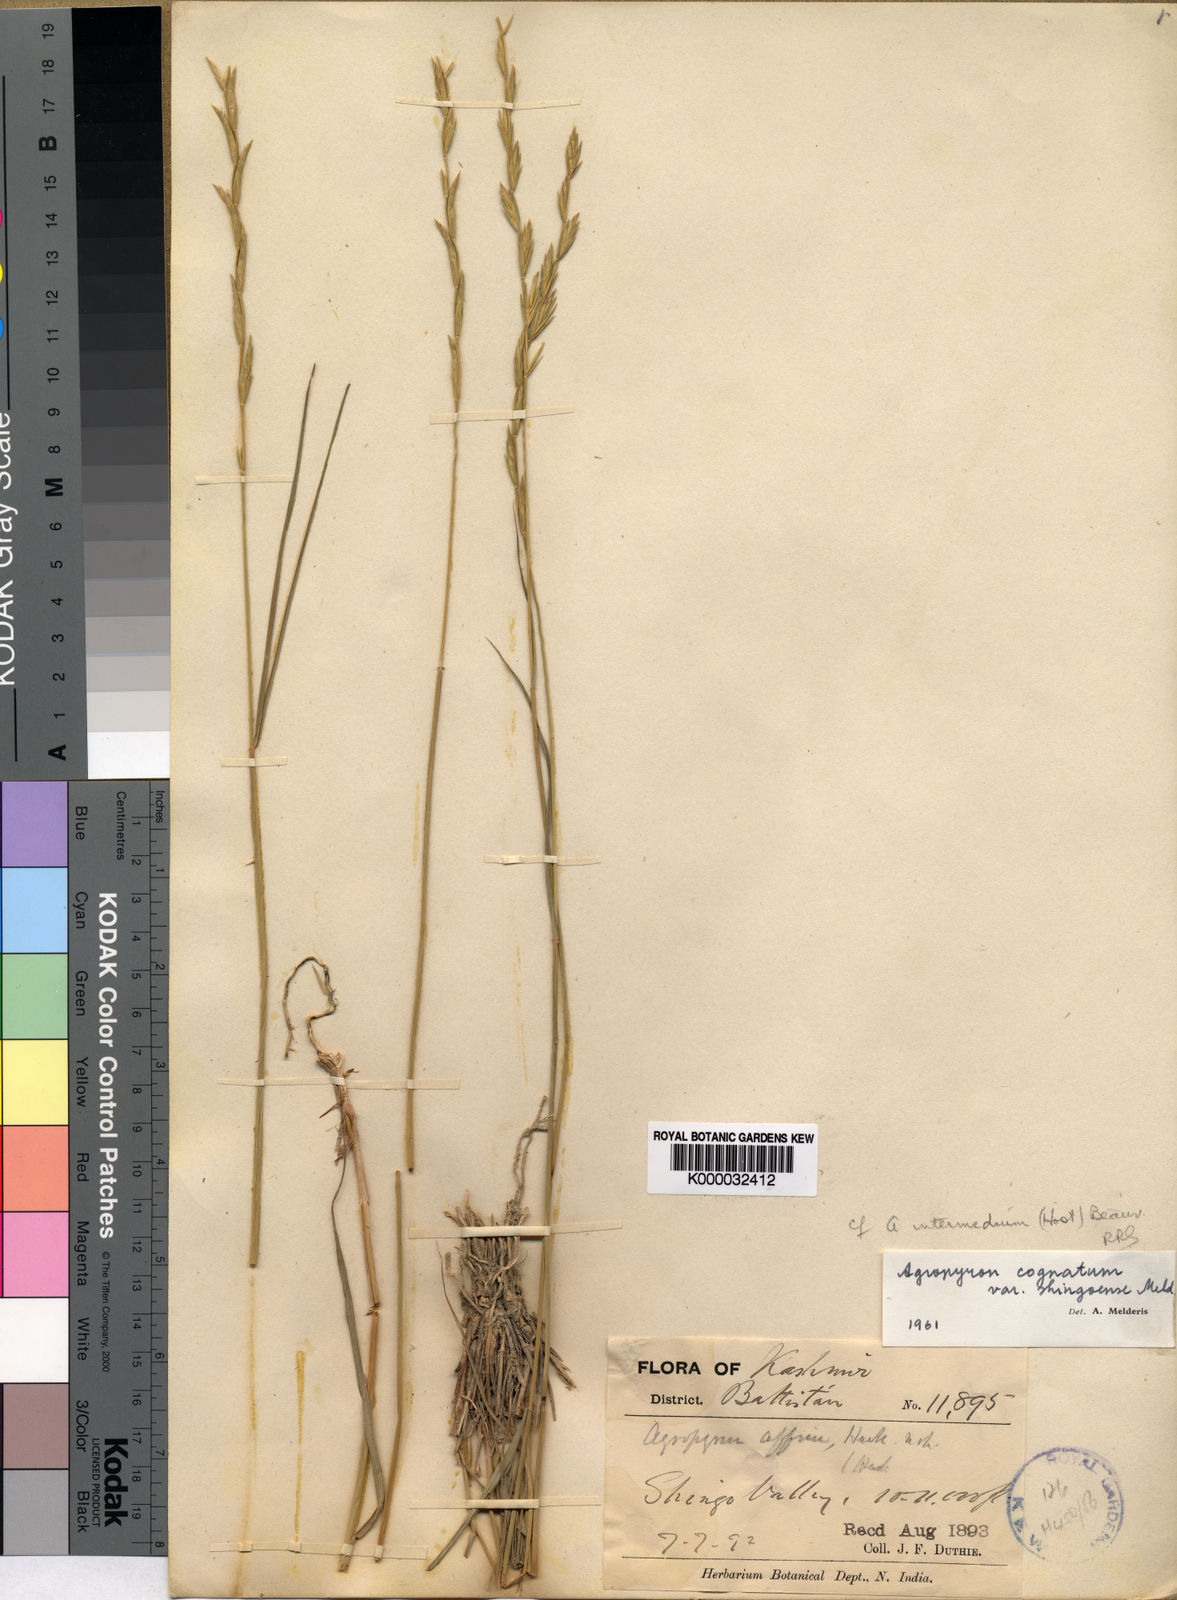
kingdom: Plantae
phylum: Tracheophyta
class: Liliopsida
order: Poales
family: Poaceae
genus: Pseudoroegneria
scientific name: Pseudoroegneria cognata
